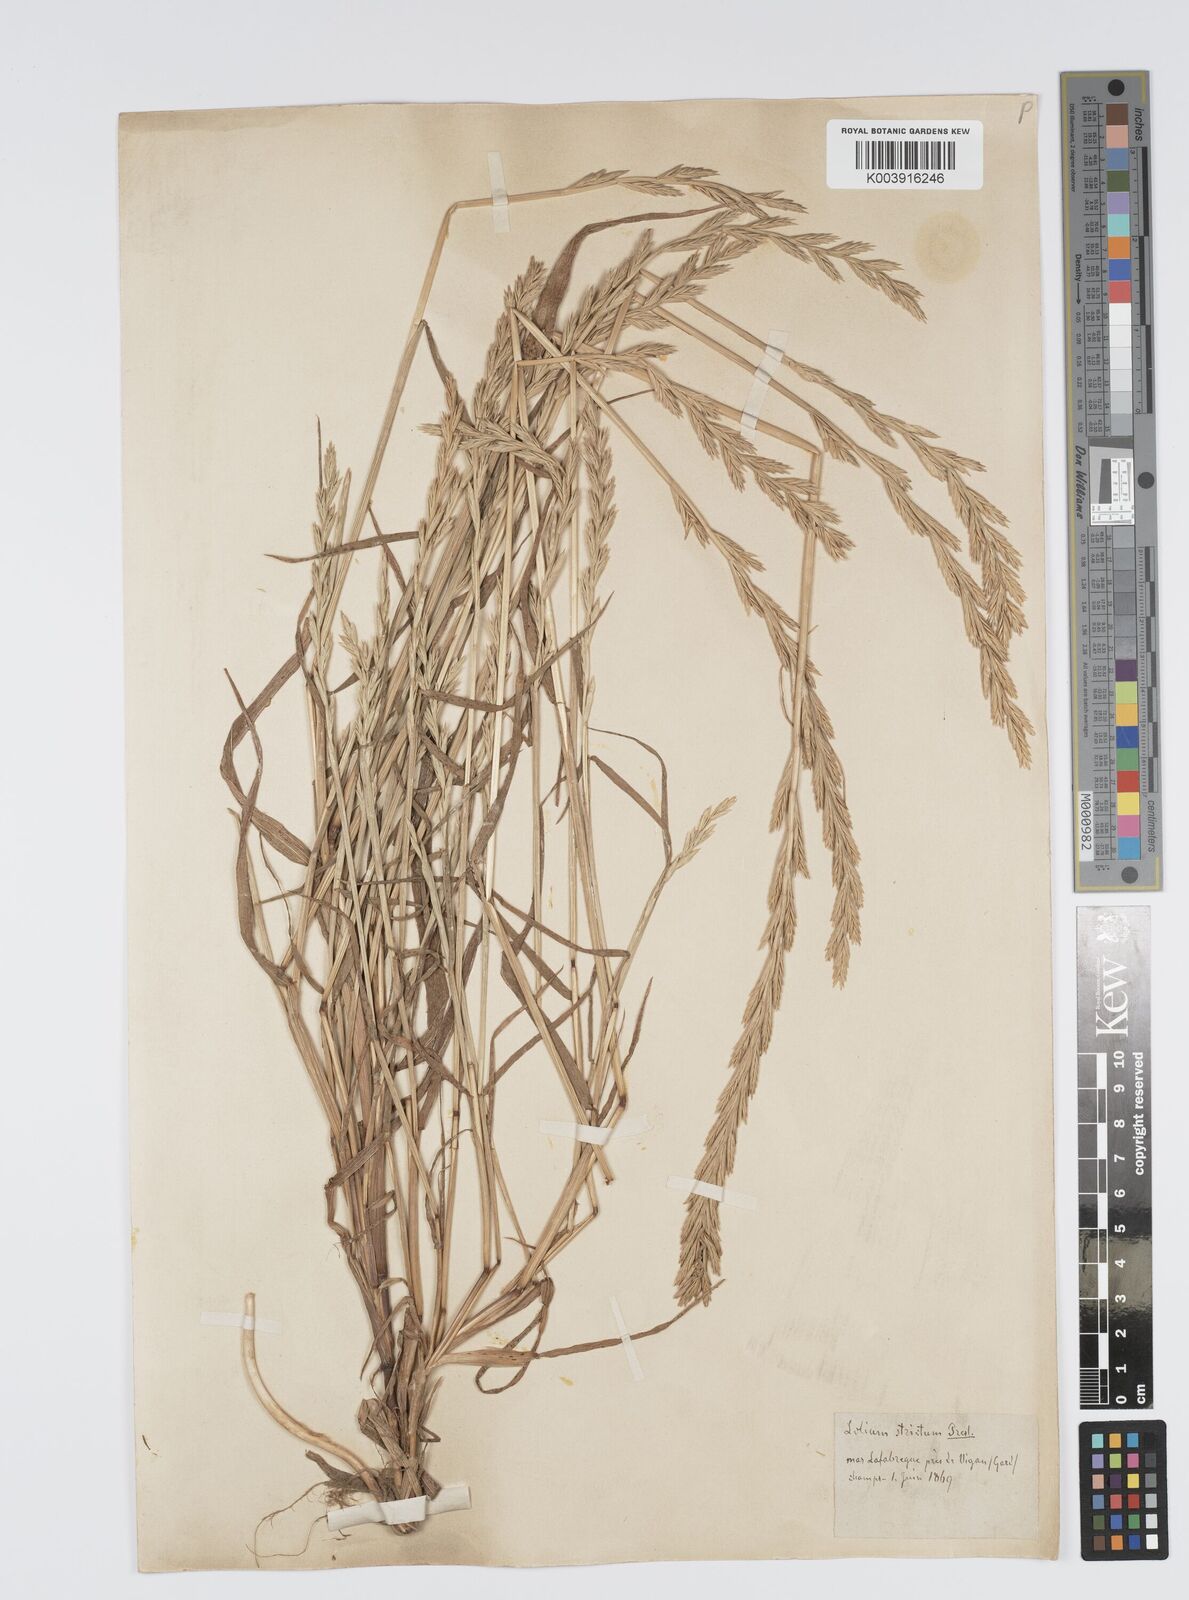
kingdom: Plantae
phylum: Tracheophyta
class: Liliopsida
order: Poales
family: Poaceae
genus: Lolium
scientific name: Lolium rigidum
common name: Wimmera ryegrass
